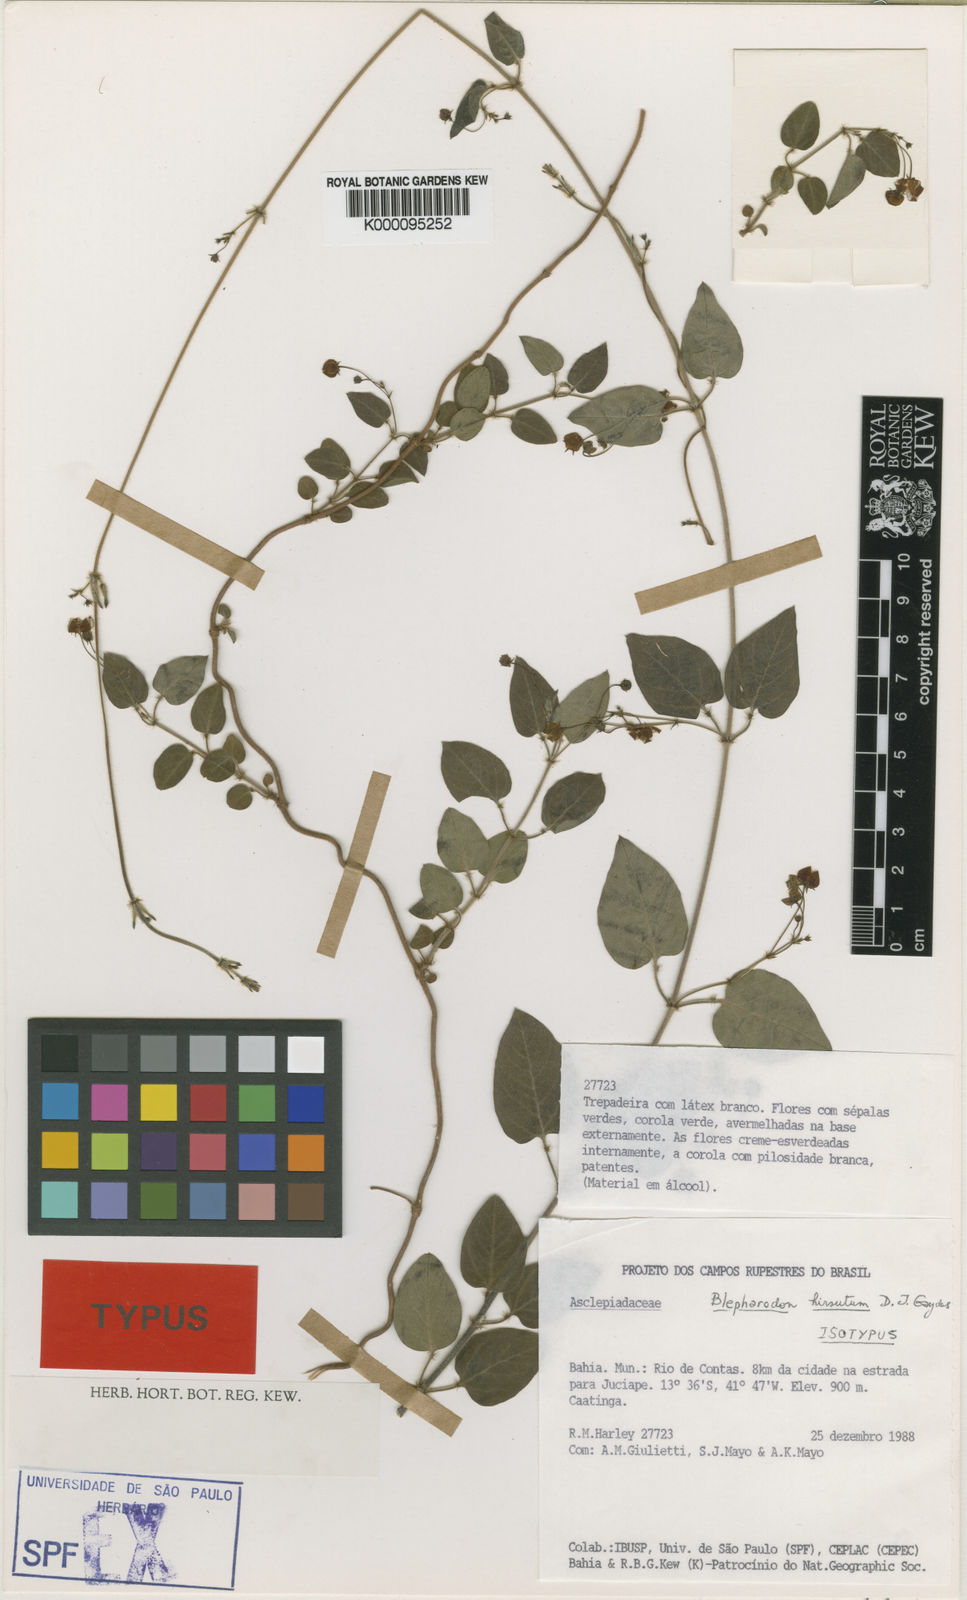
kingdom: Plantae
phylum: Tracheophyta
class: Magnoliopsida
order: Gentianales
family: Apocynaceae
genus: Blepharodon
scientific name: Blepharodon manicatum
